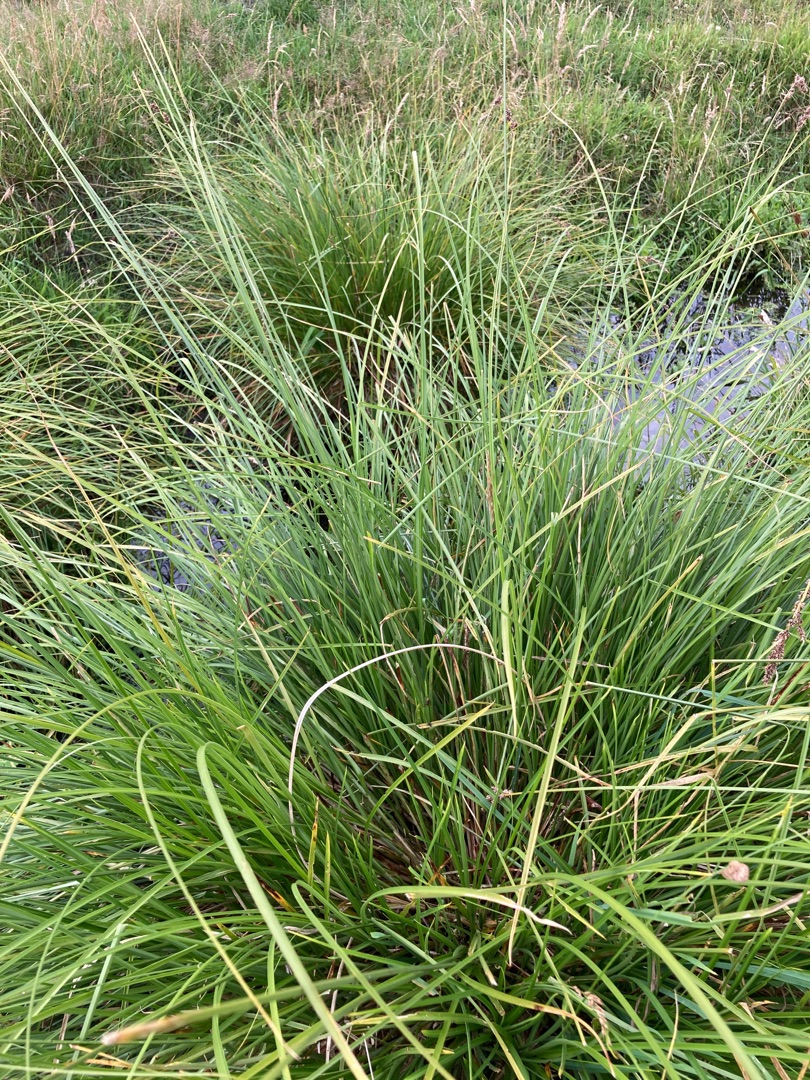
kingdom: Plantae
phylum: Tracheophyta
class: Liliopsida
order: Poales
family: Cyperaceae
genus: Carex
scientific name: Carex paniculata
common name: Top-star
